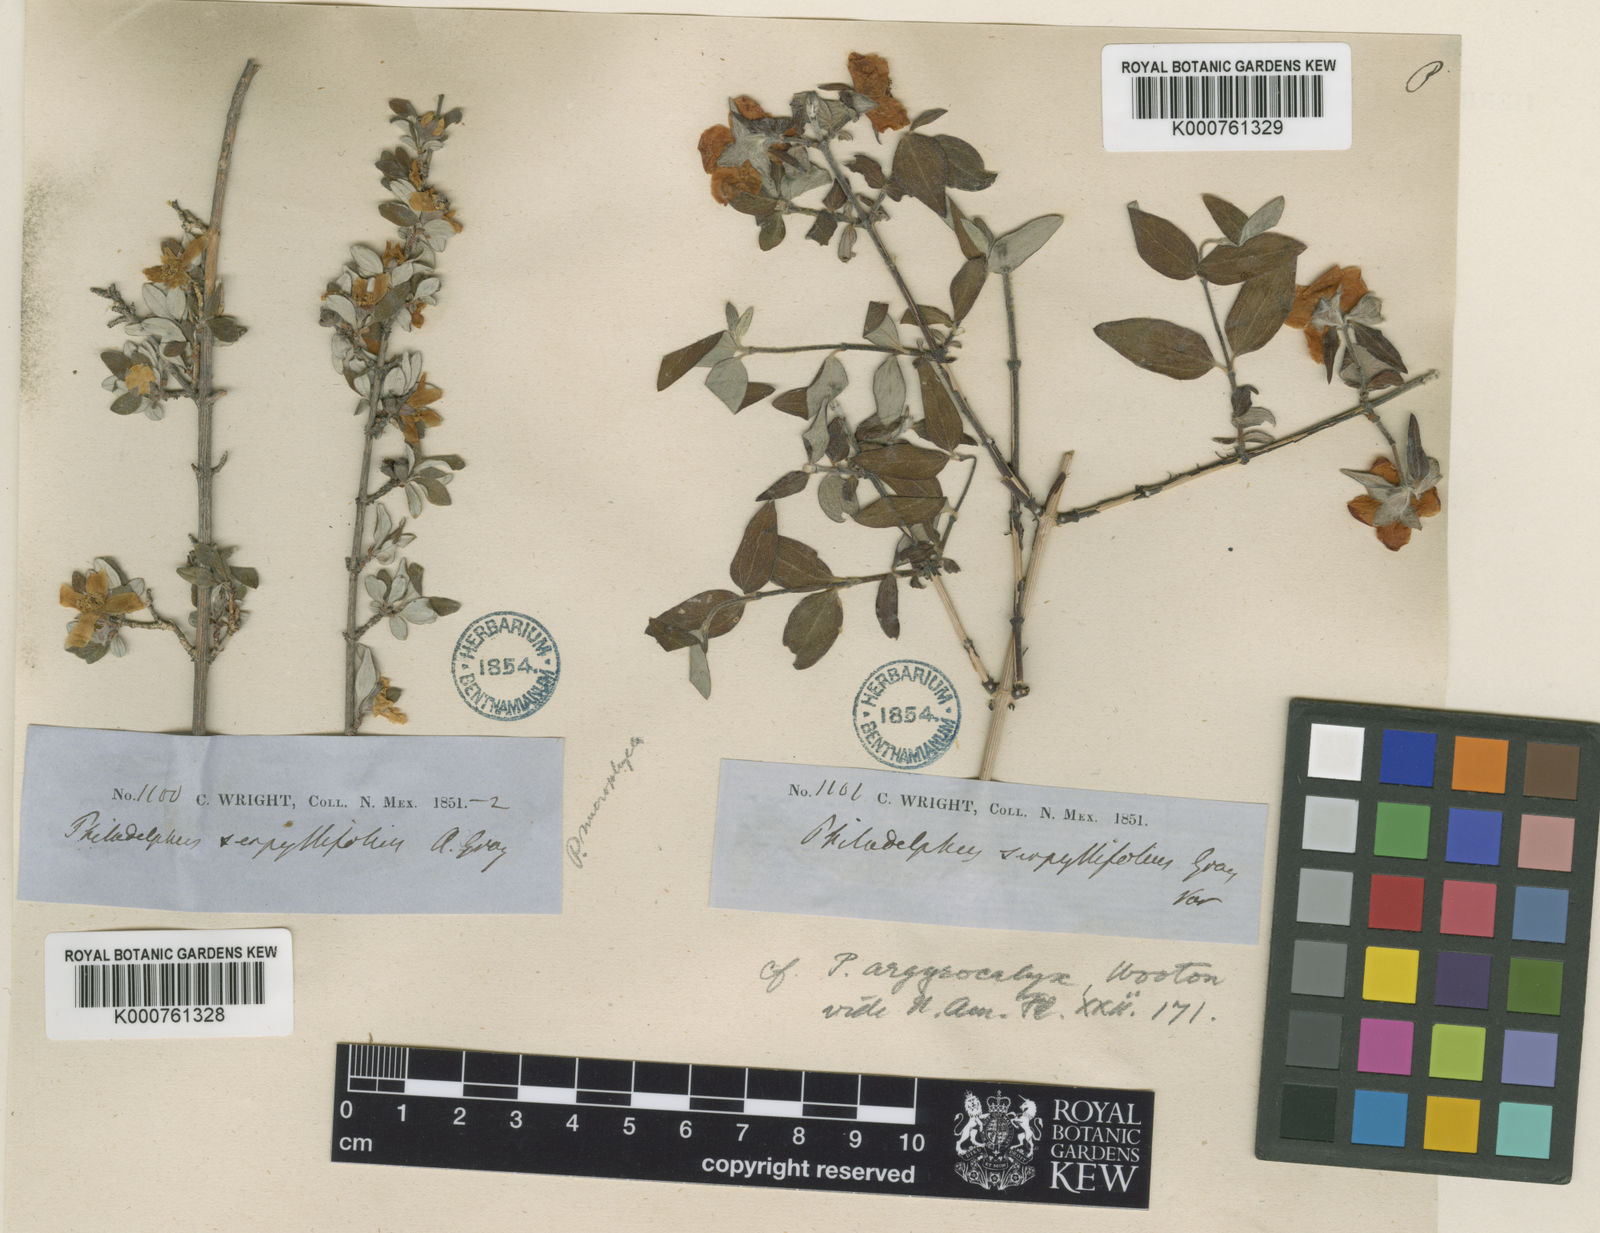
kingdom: Plantae
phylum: Tracheophyta
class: Magnoliopsida
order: Cornales
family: Hydrangeaceae
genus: Philadelphus
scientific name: Philadelphus microphyllus
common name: Desert mock orange
